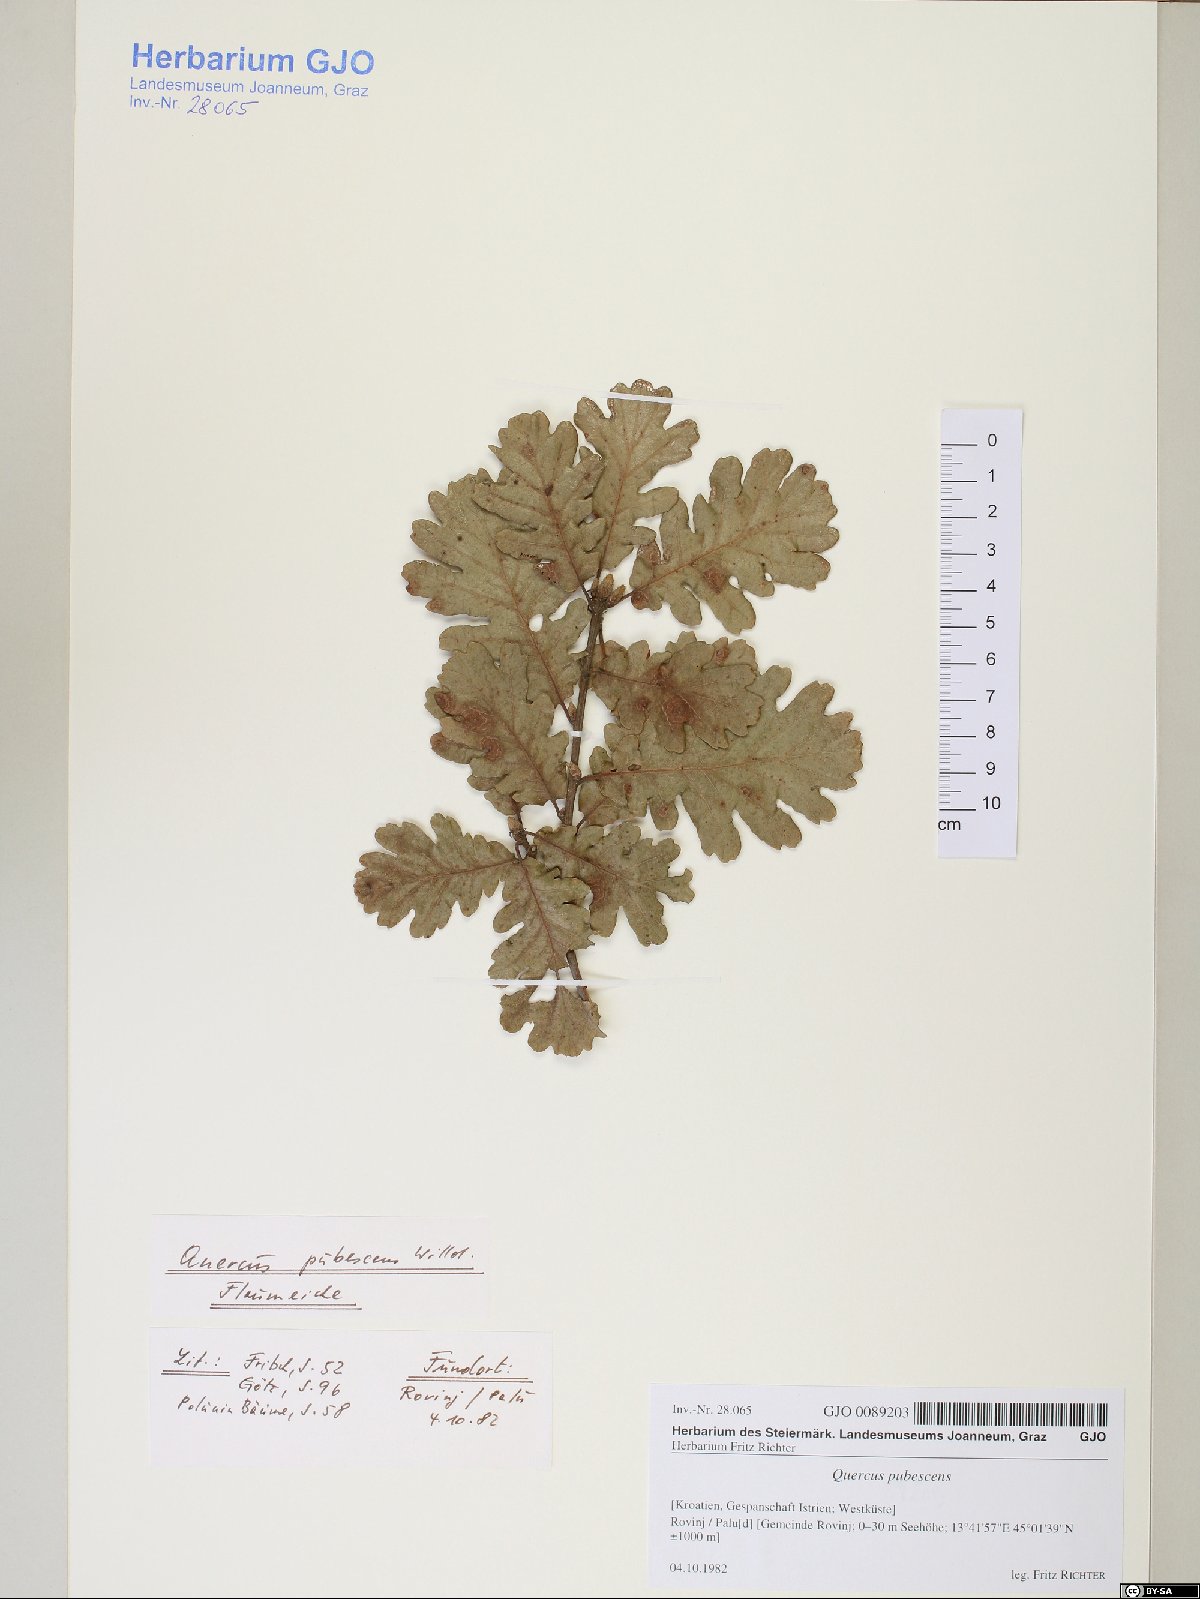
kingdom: Plantae
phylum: Tracheophyta
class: Magnoliopsida
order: Fagales
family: Fagaceae
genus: Quercus
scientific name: Quercus pubescens
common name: Downy oak
